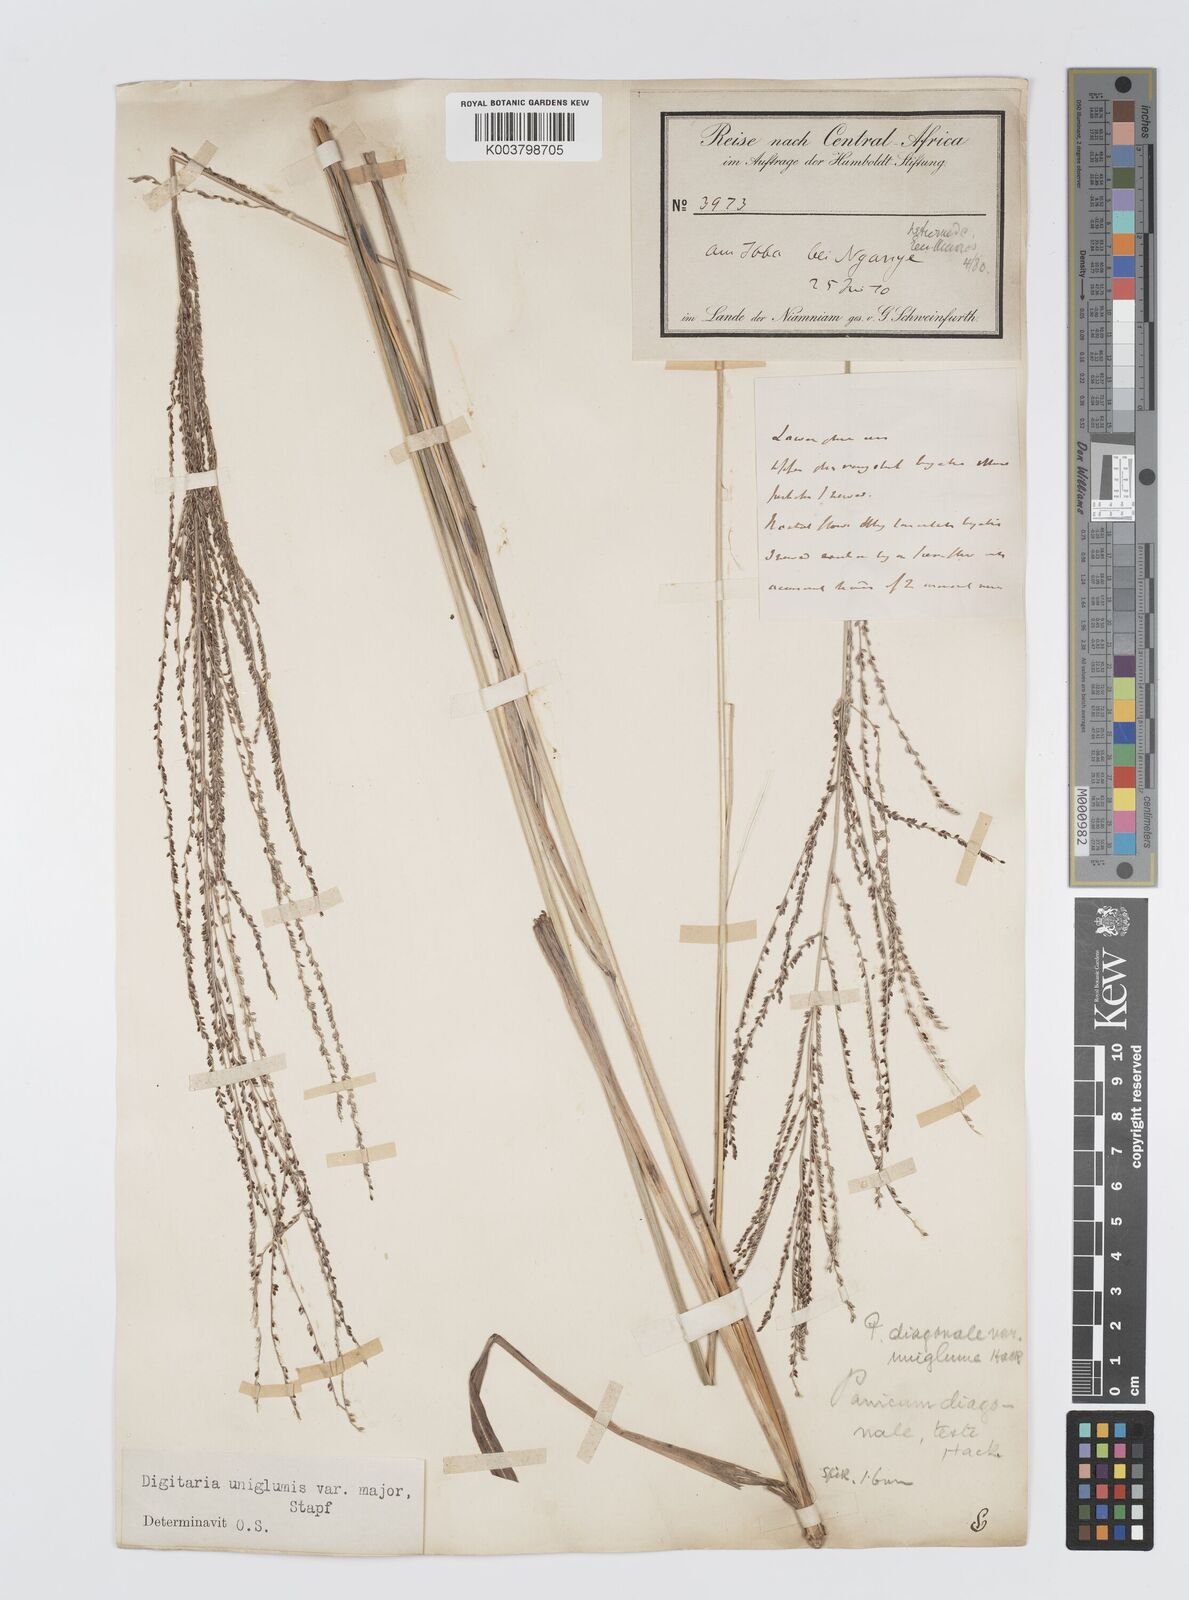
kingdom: Plantae
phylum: Tracheophyta
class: Liliopsida
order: Poales
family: Poaceae
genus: Digitaria
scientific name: Digitaria diagonalis
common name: Brown-seed finger grass
